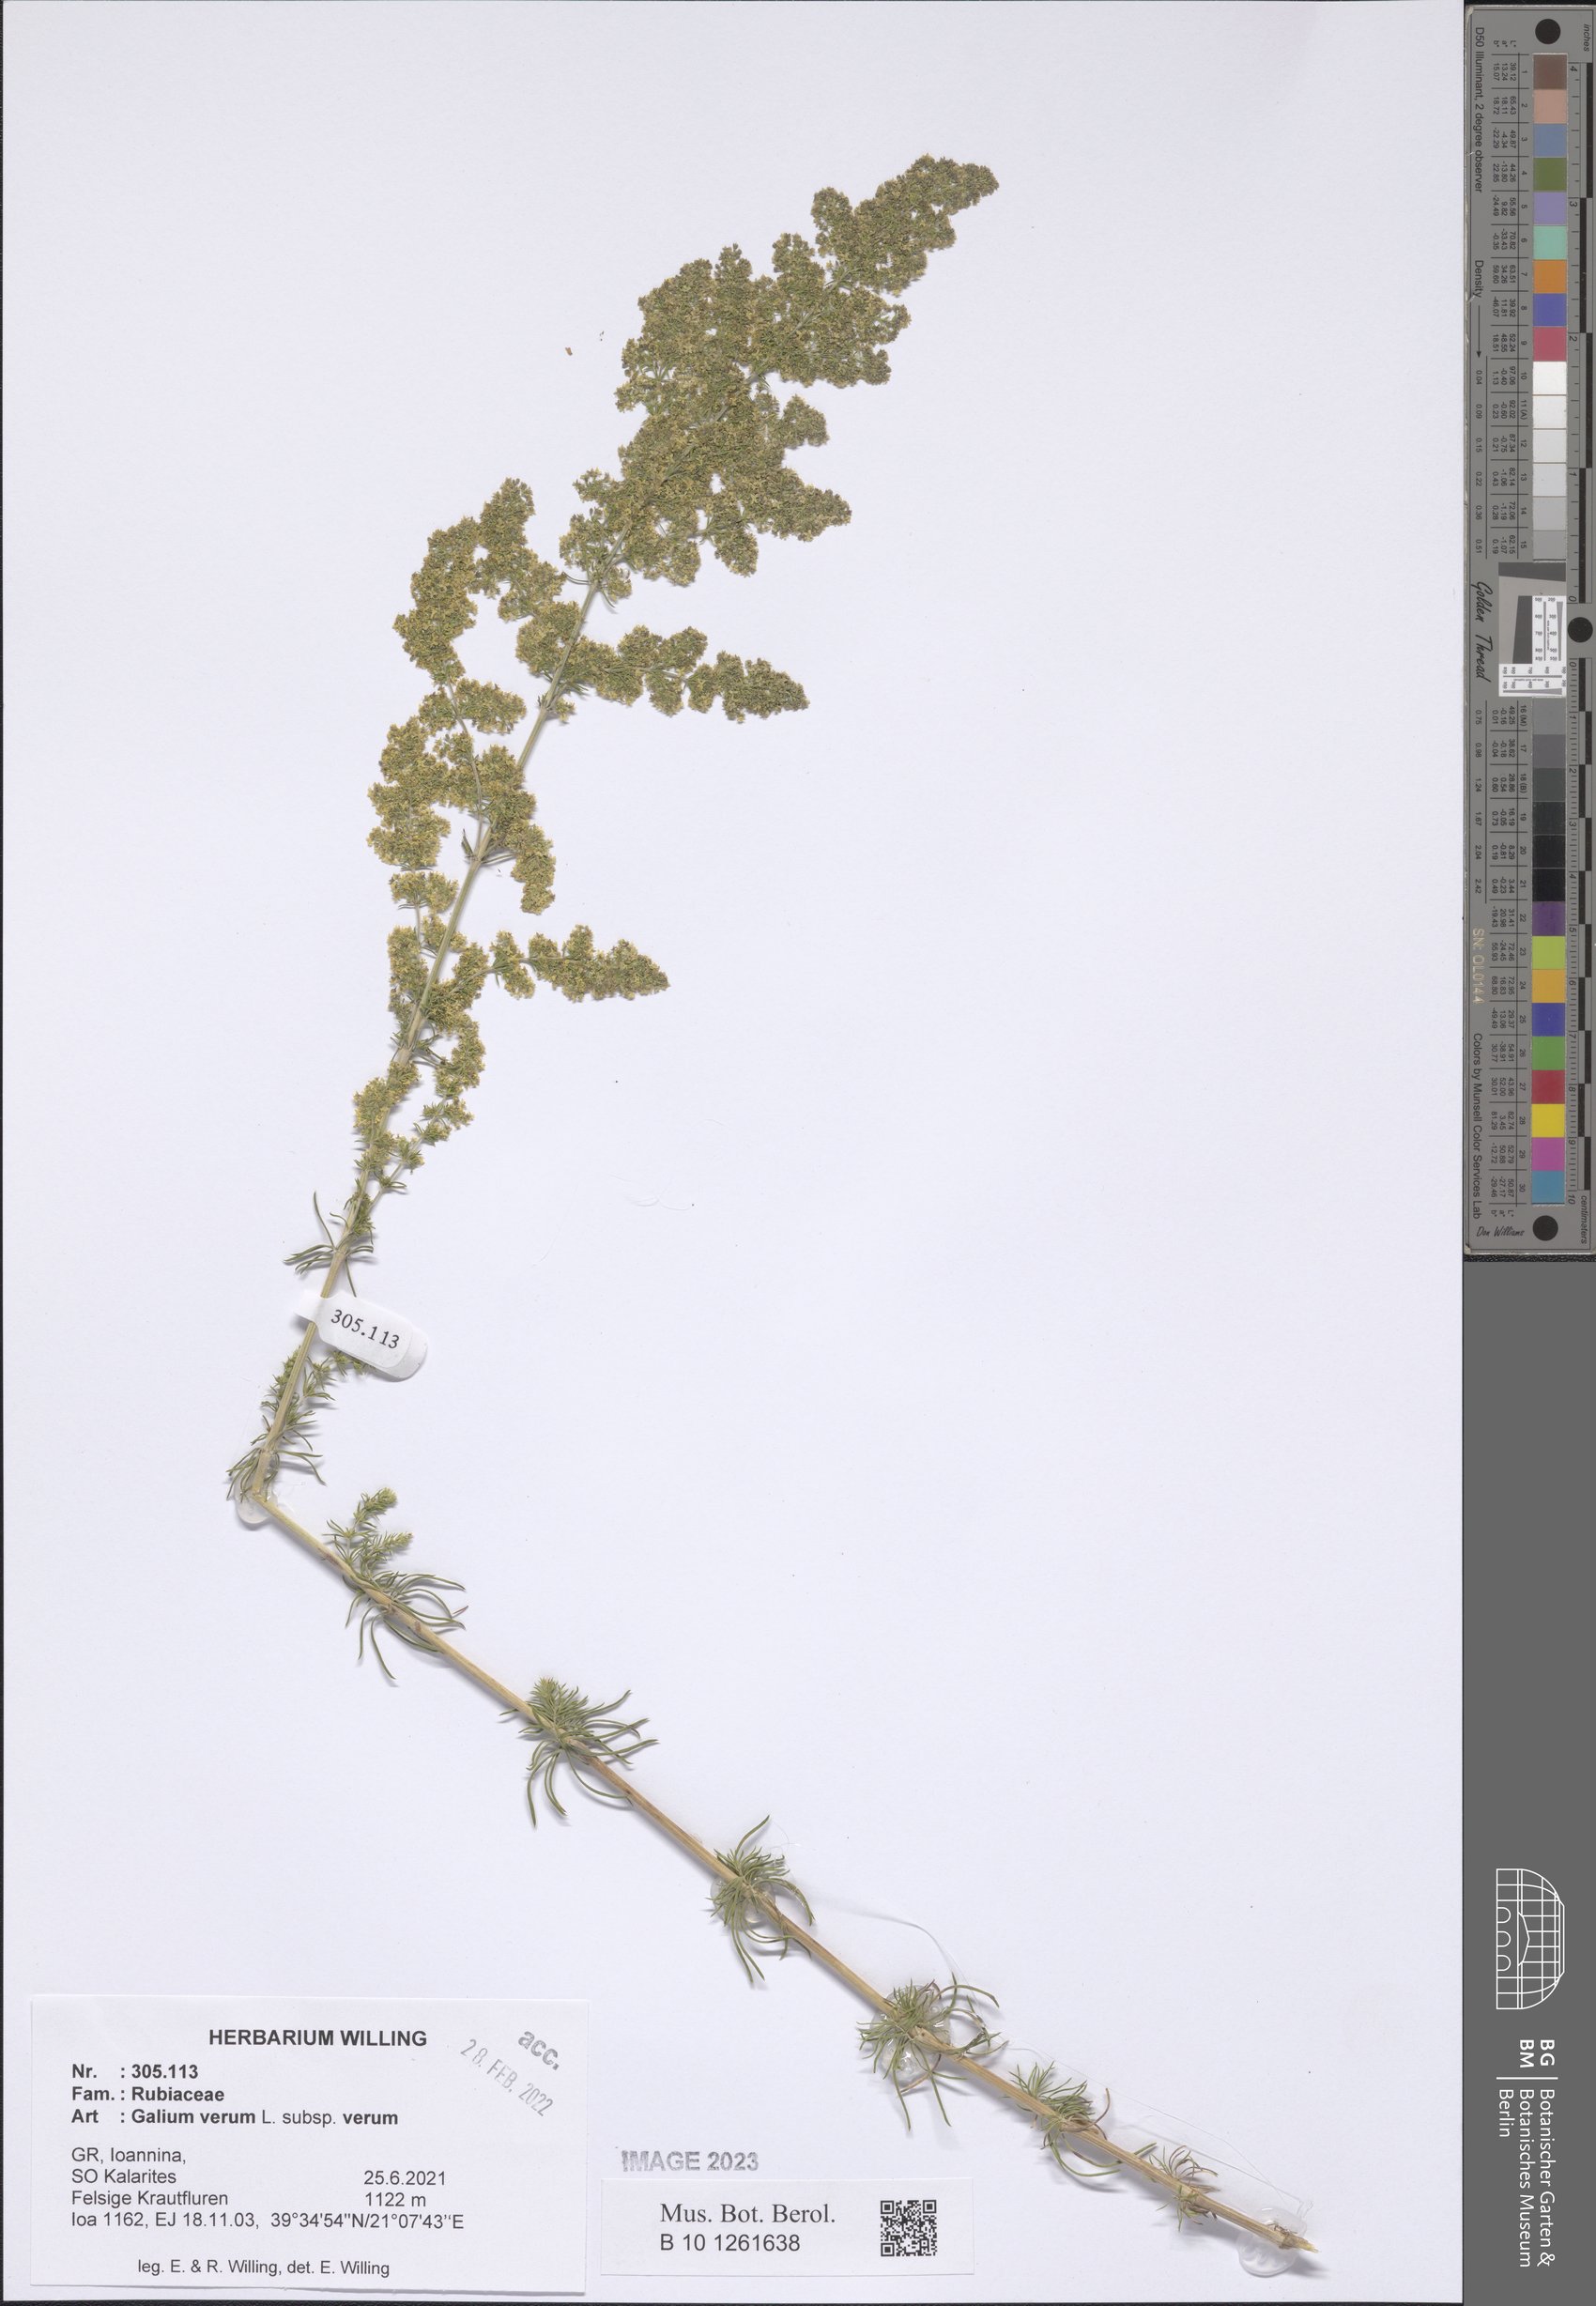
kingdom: Plantae
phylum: Tracheophyta
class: Magnoliopsida
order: Gentianales
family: Rubiaceae
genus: Galium
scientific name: Galium verum
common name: Lady's bedstraw
